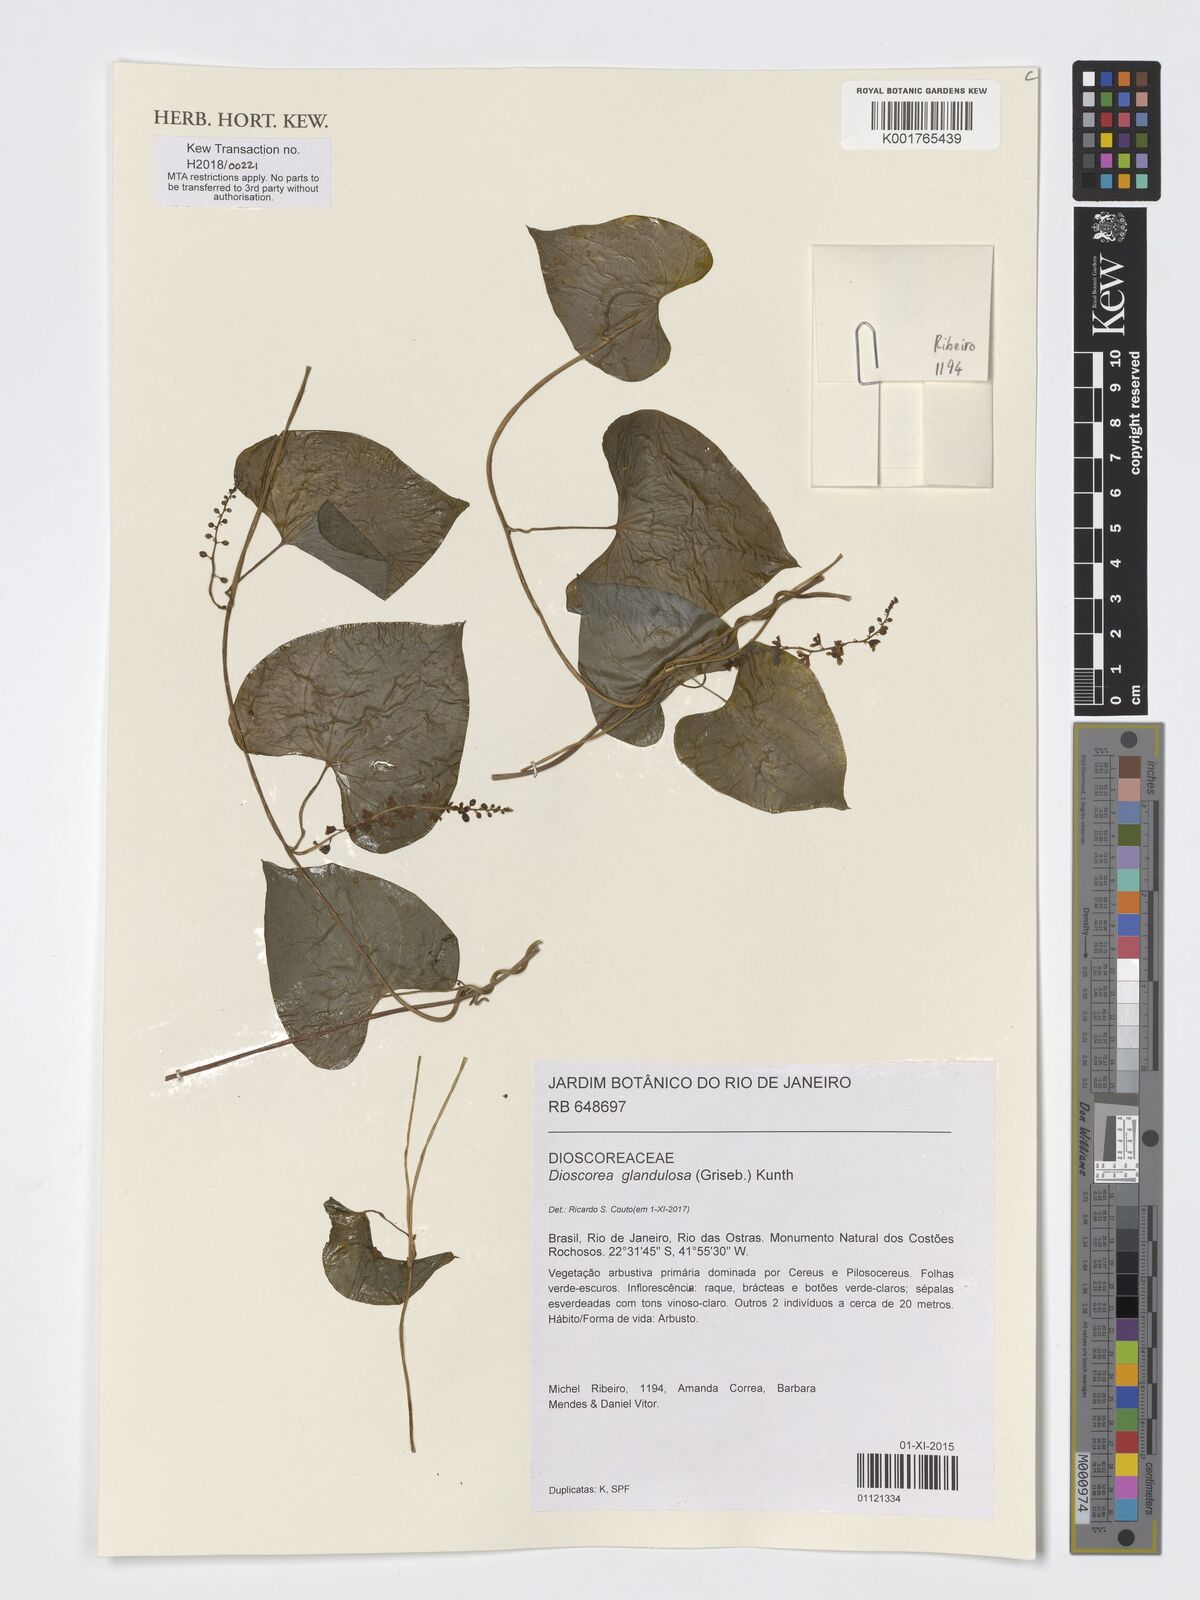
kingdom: Plantae
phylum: Tracheophyta
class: Liliopsida
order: Dioscoreales
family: Dioscoreaceae
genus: Dioscorea
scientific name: Dioscorea glandulosa
